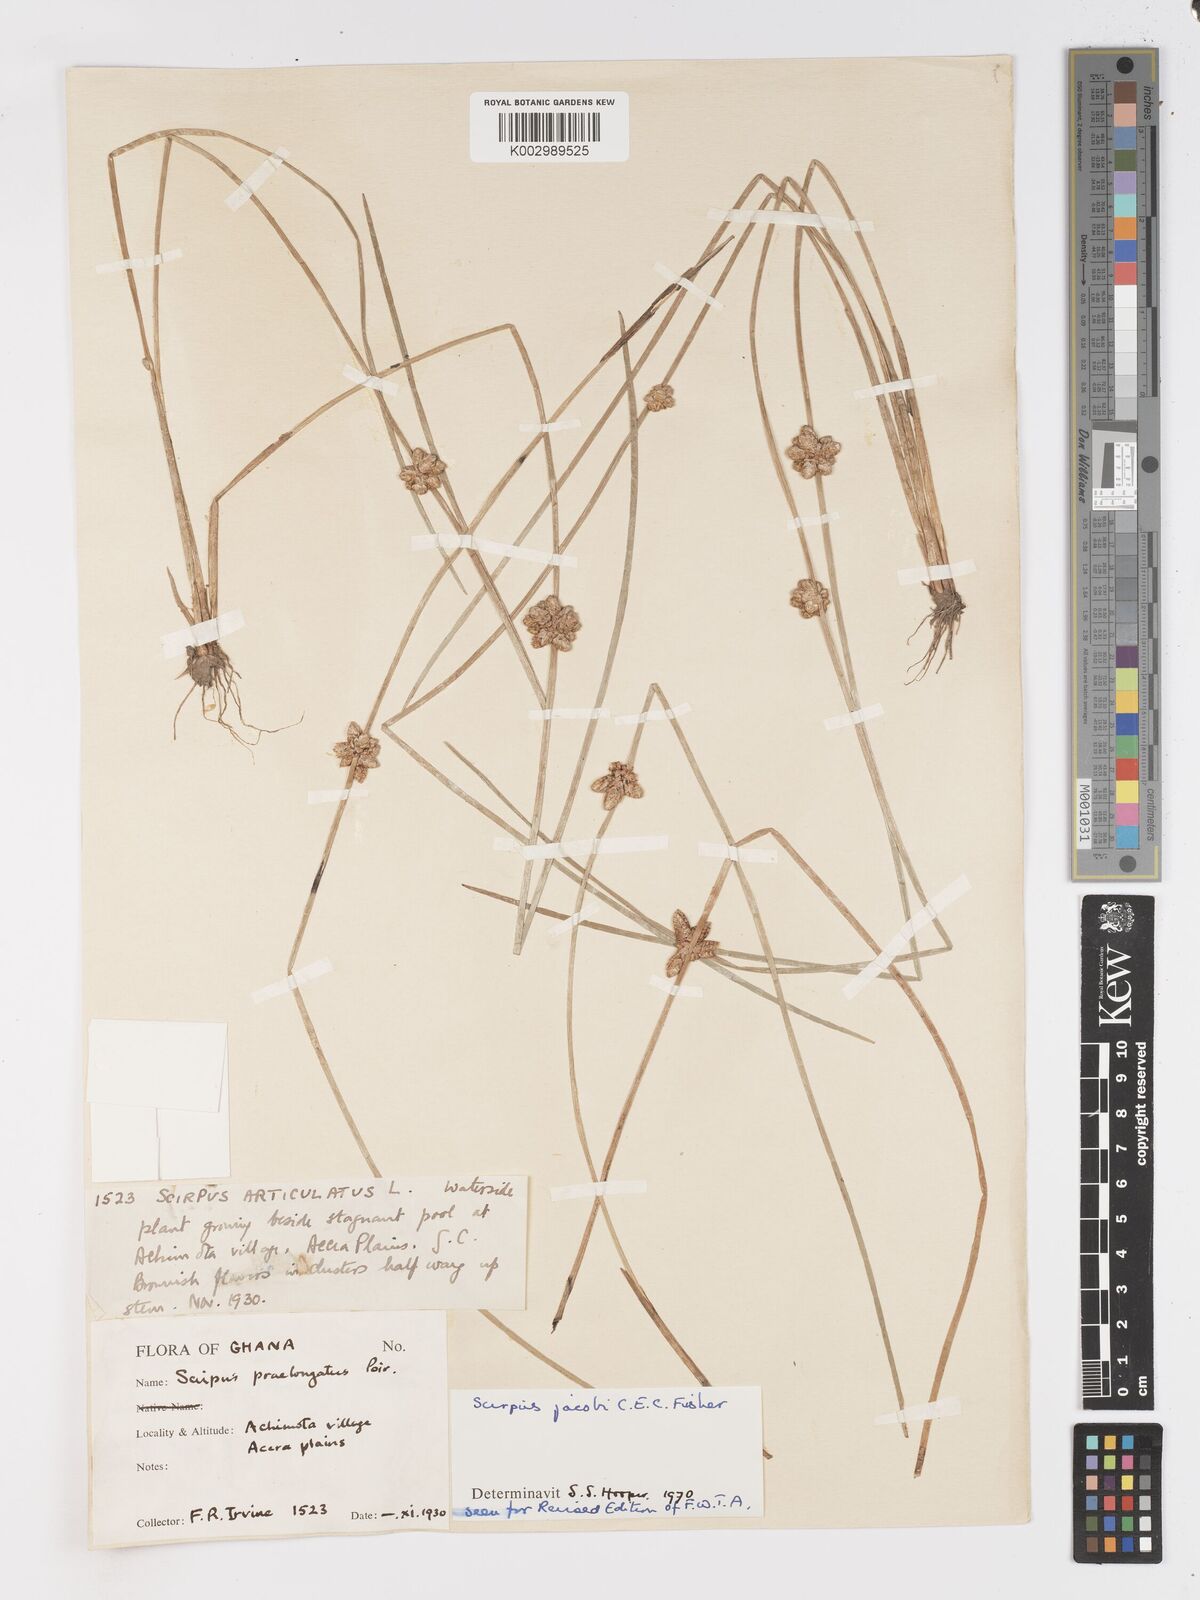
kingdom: Plantae
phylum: Tracheophyta
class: Liliopsida
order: Poales
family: Cyperaceae
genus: Schoenoplectiella
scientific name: Schoenoplectiella senegalensis
